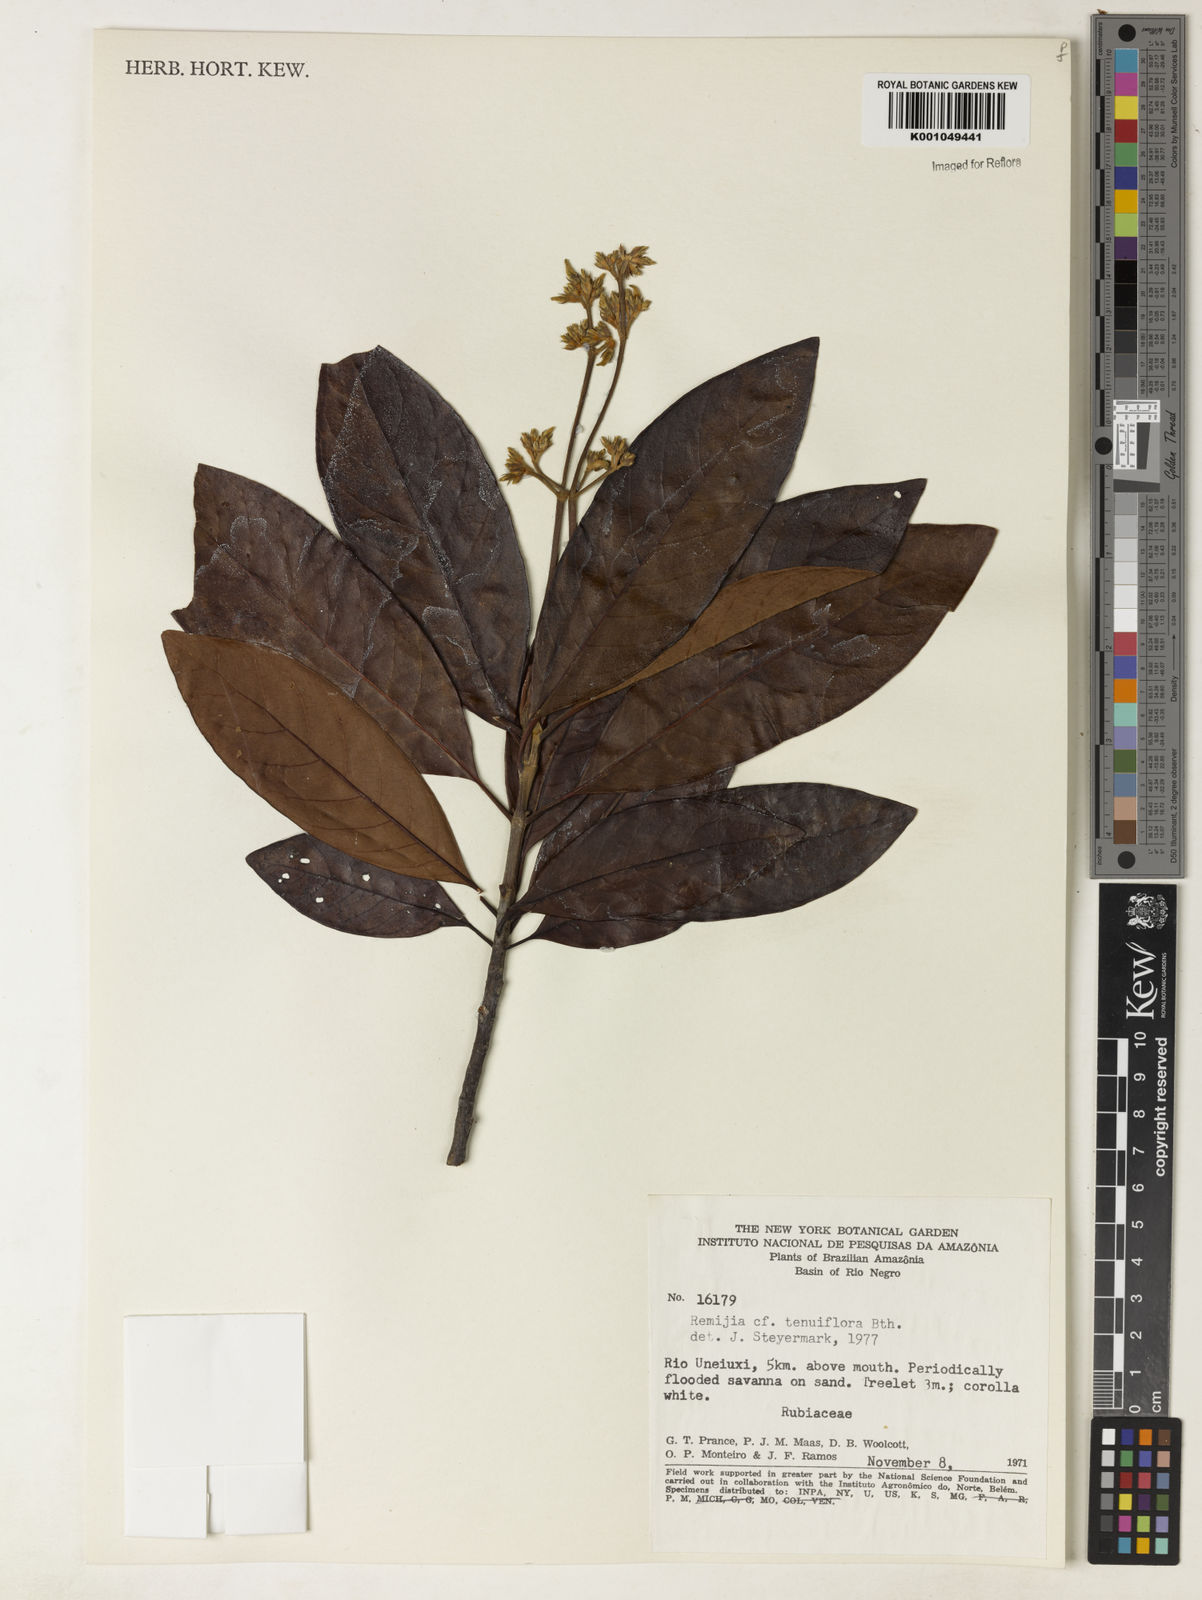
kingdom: Plantae
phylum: Tracheophyta
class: Magnoliopsida
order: Gentianales
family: Rubiaceae
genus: Remijia
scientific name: Remijia tenuiflora
